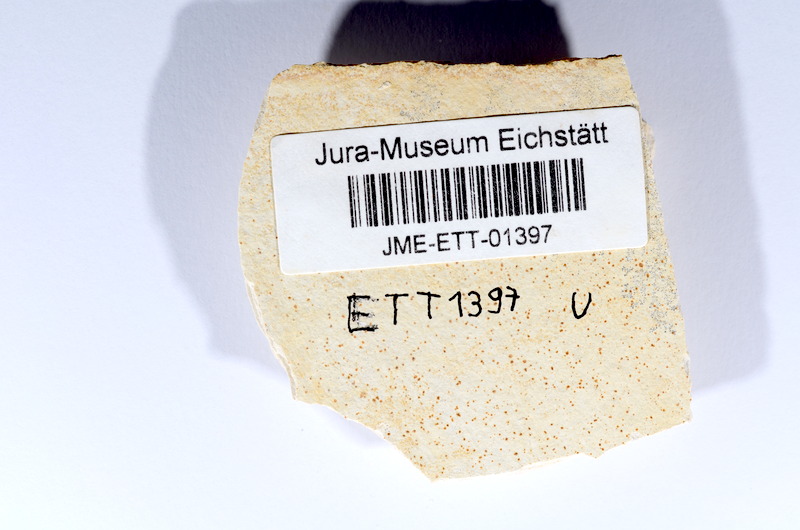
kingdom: Animalia
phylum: Chordata
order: Salmoniformes
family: Orthogonikleithridae
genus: Orthogonikleithrus
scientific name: Orthogonikleithrus hoelli
